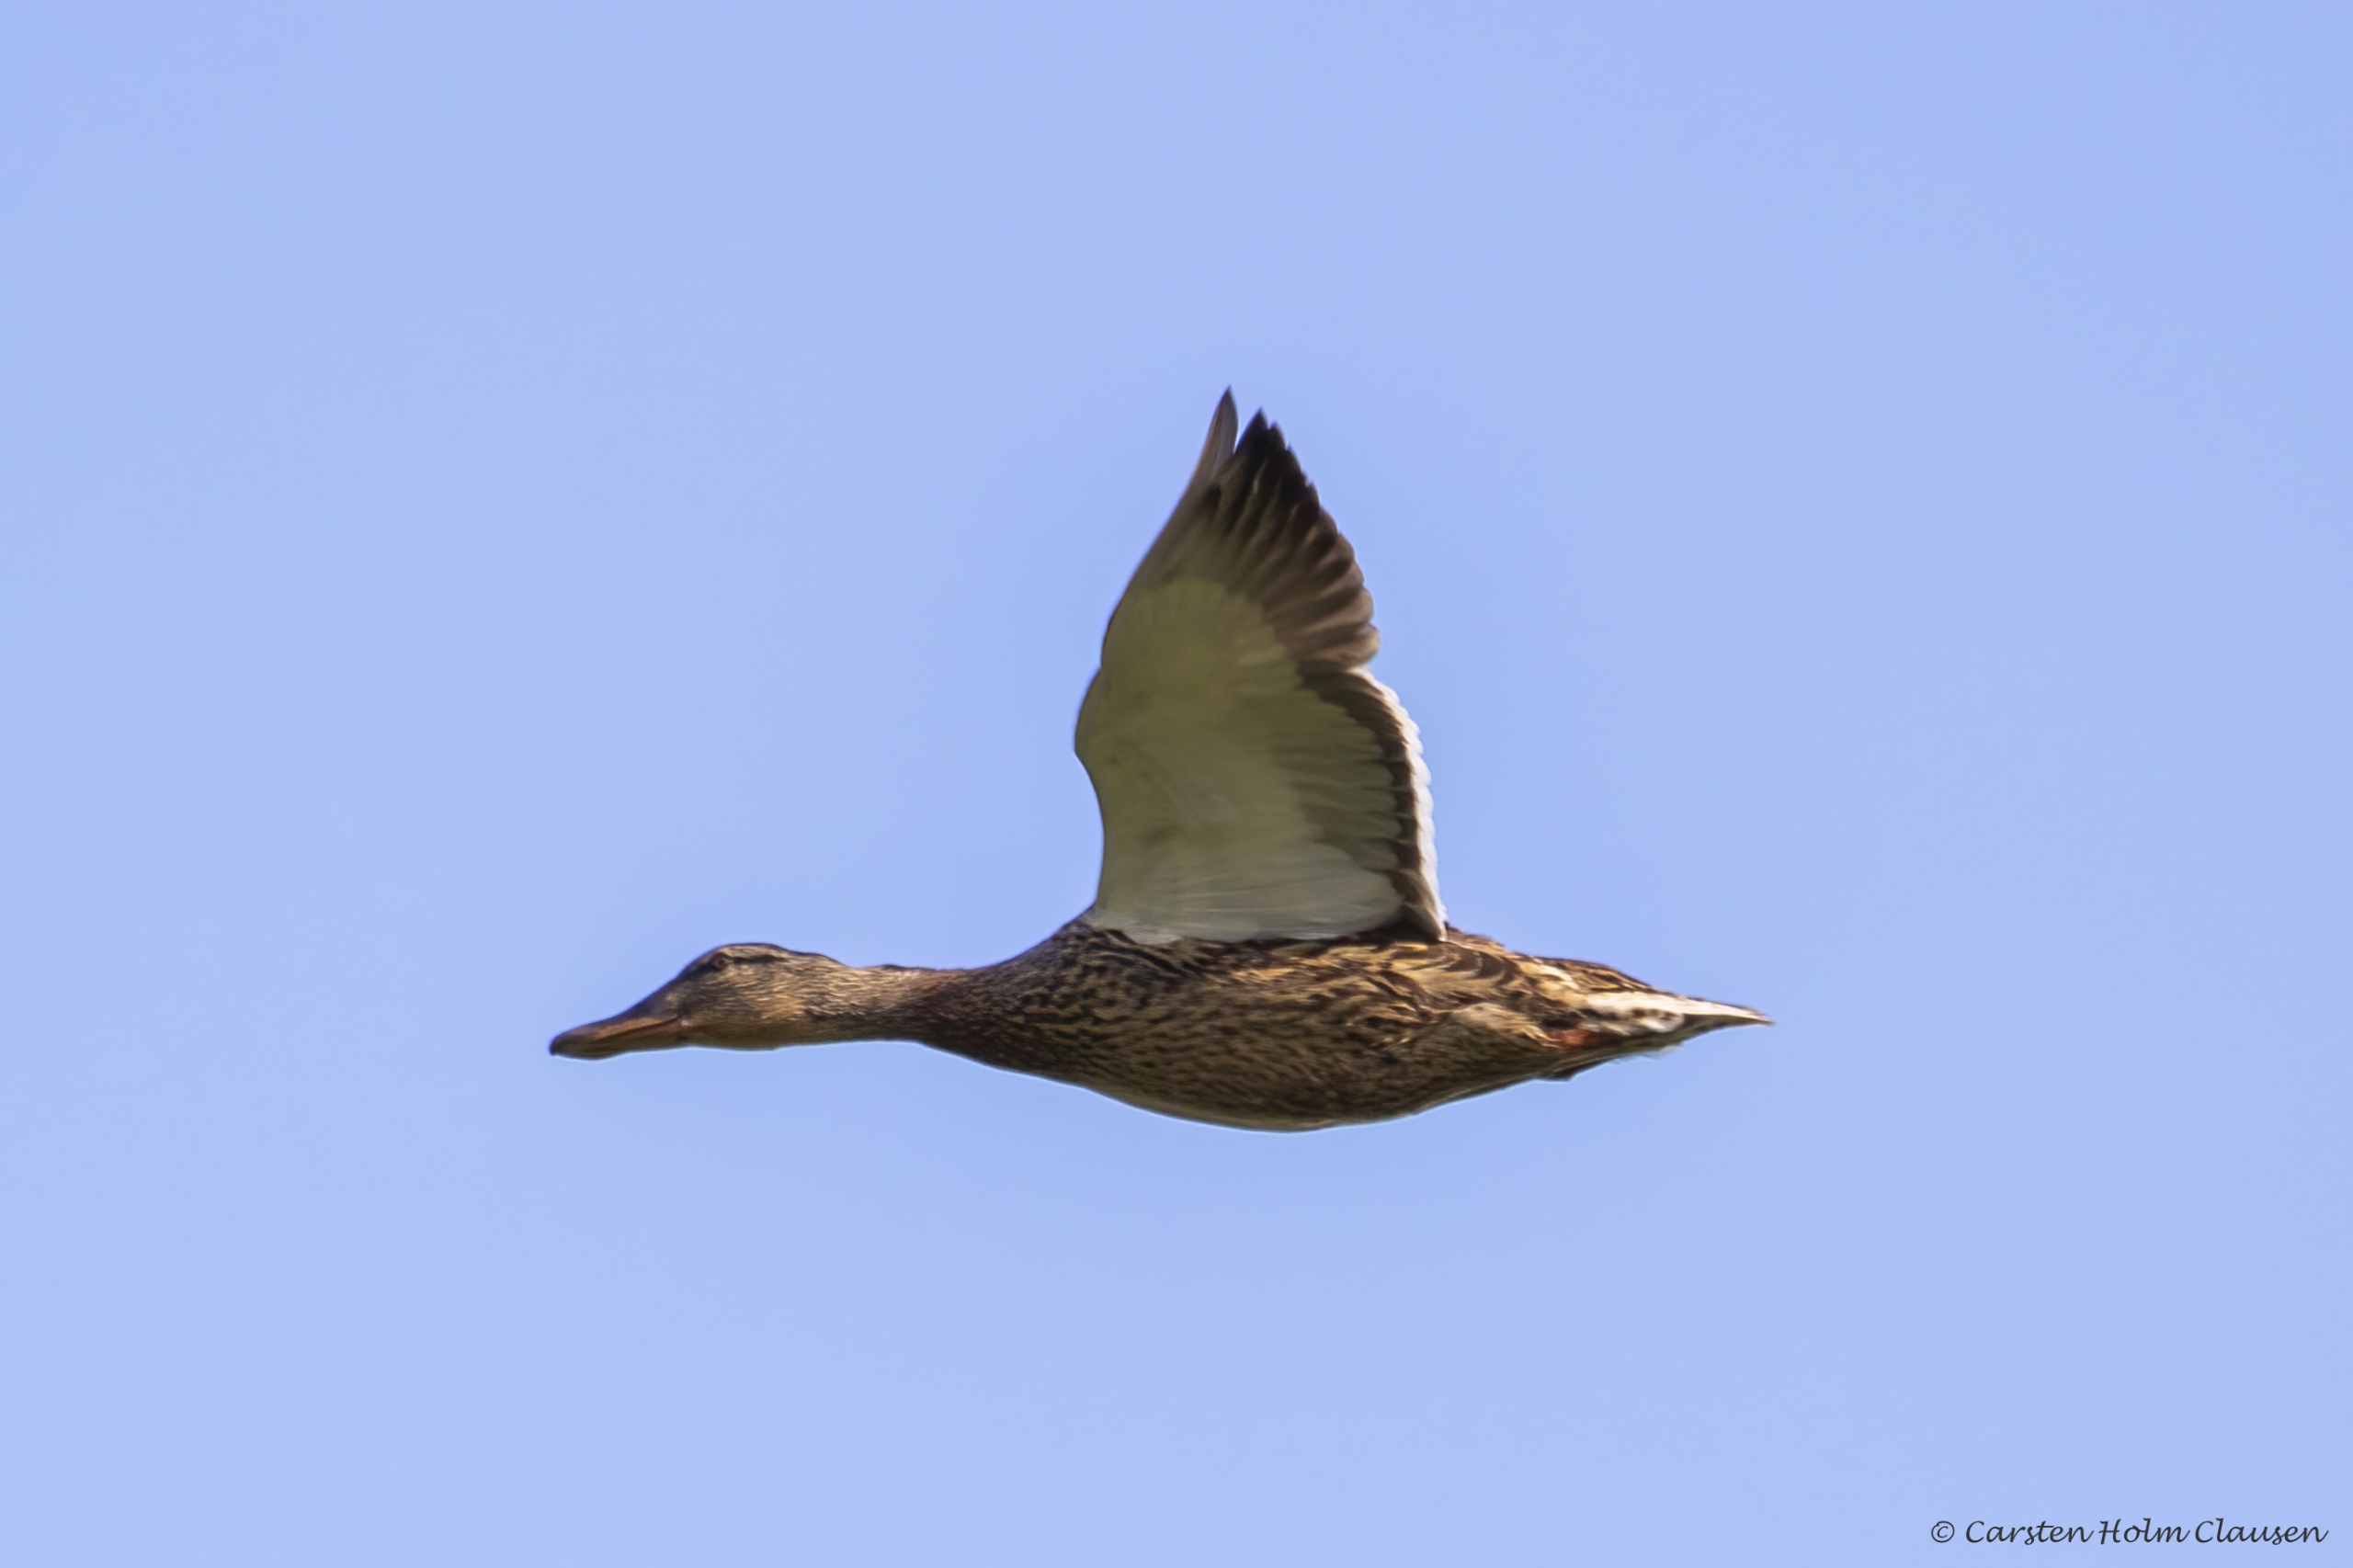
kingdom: Animalia
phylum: Chordata
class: Aves
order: Anseriformes
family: Anatidae
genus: Anas
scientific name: Anas platyrhynchos
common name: Gråand
